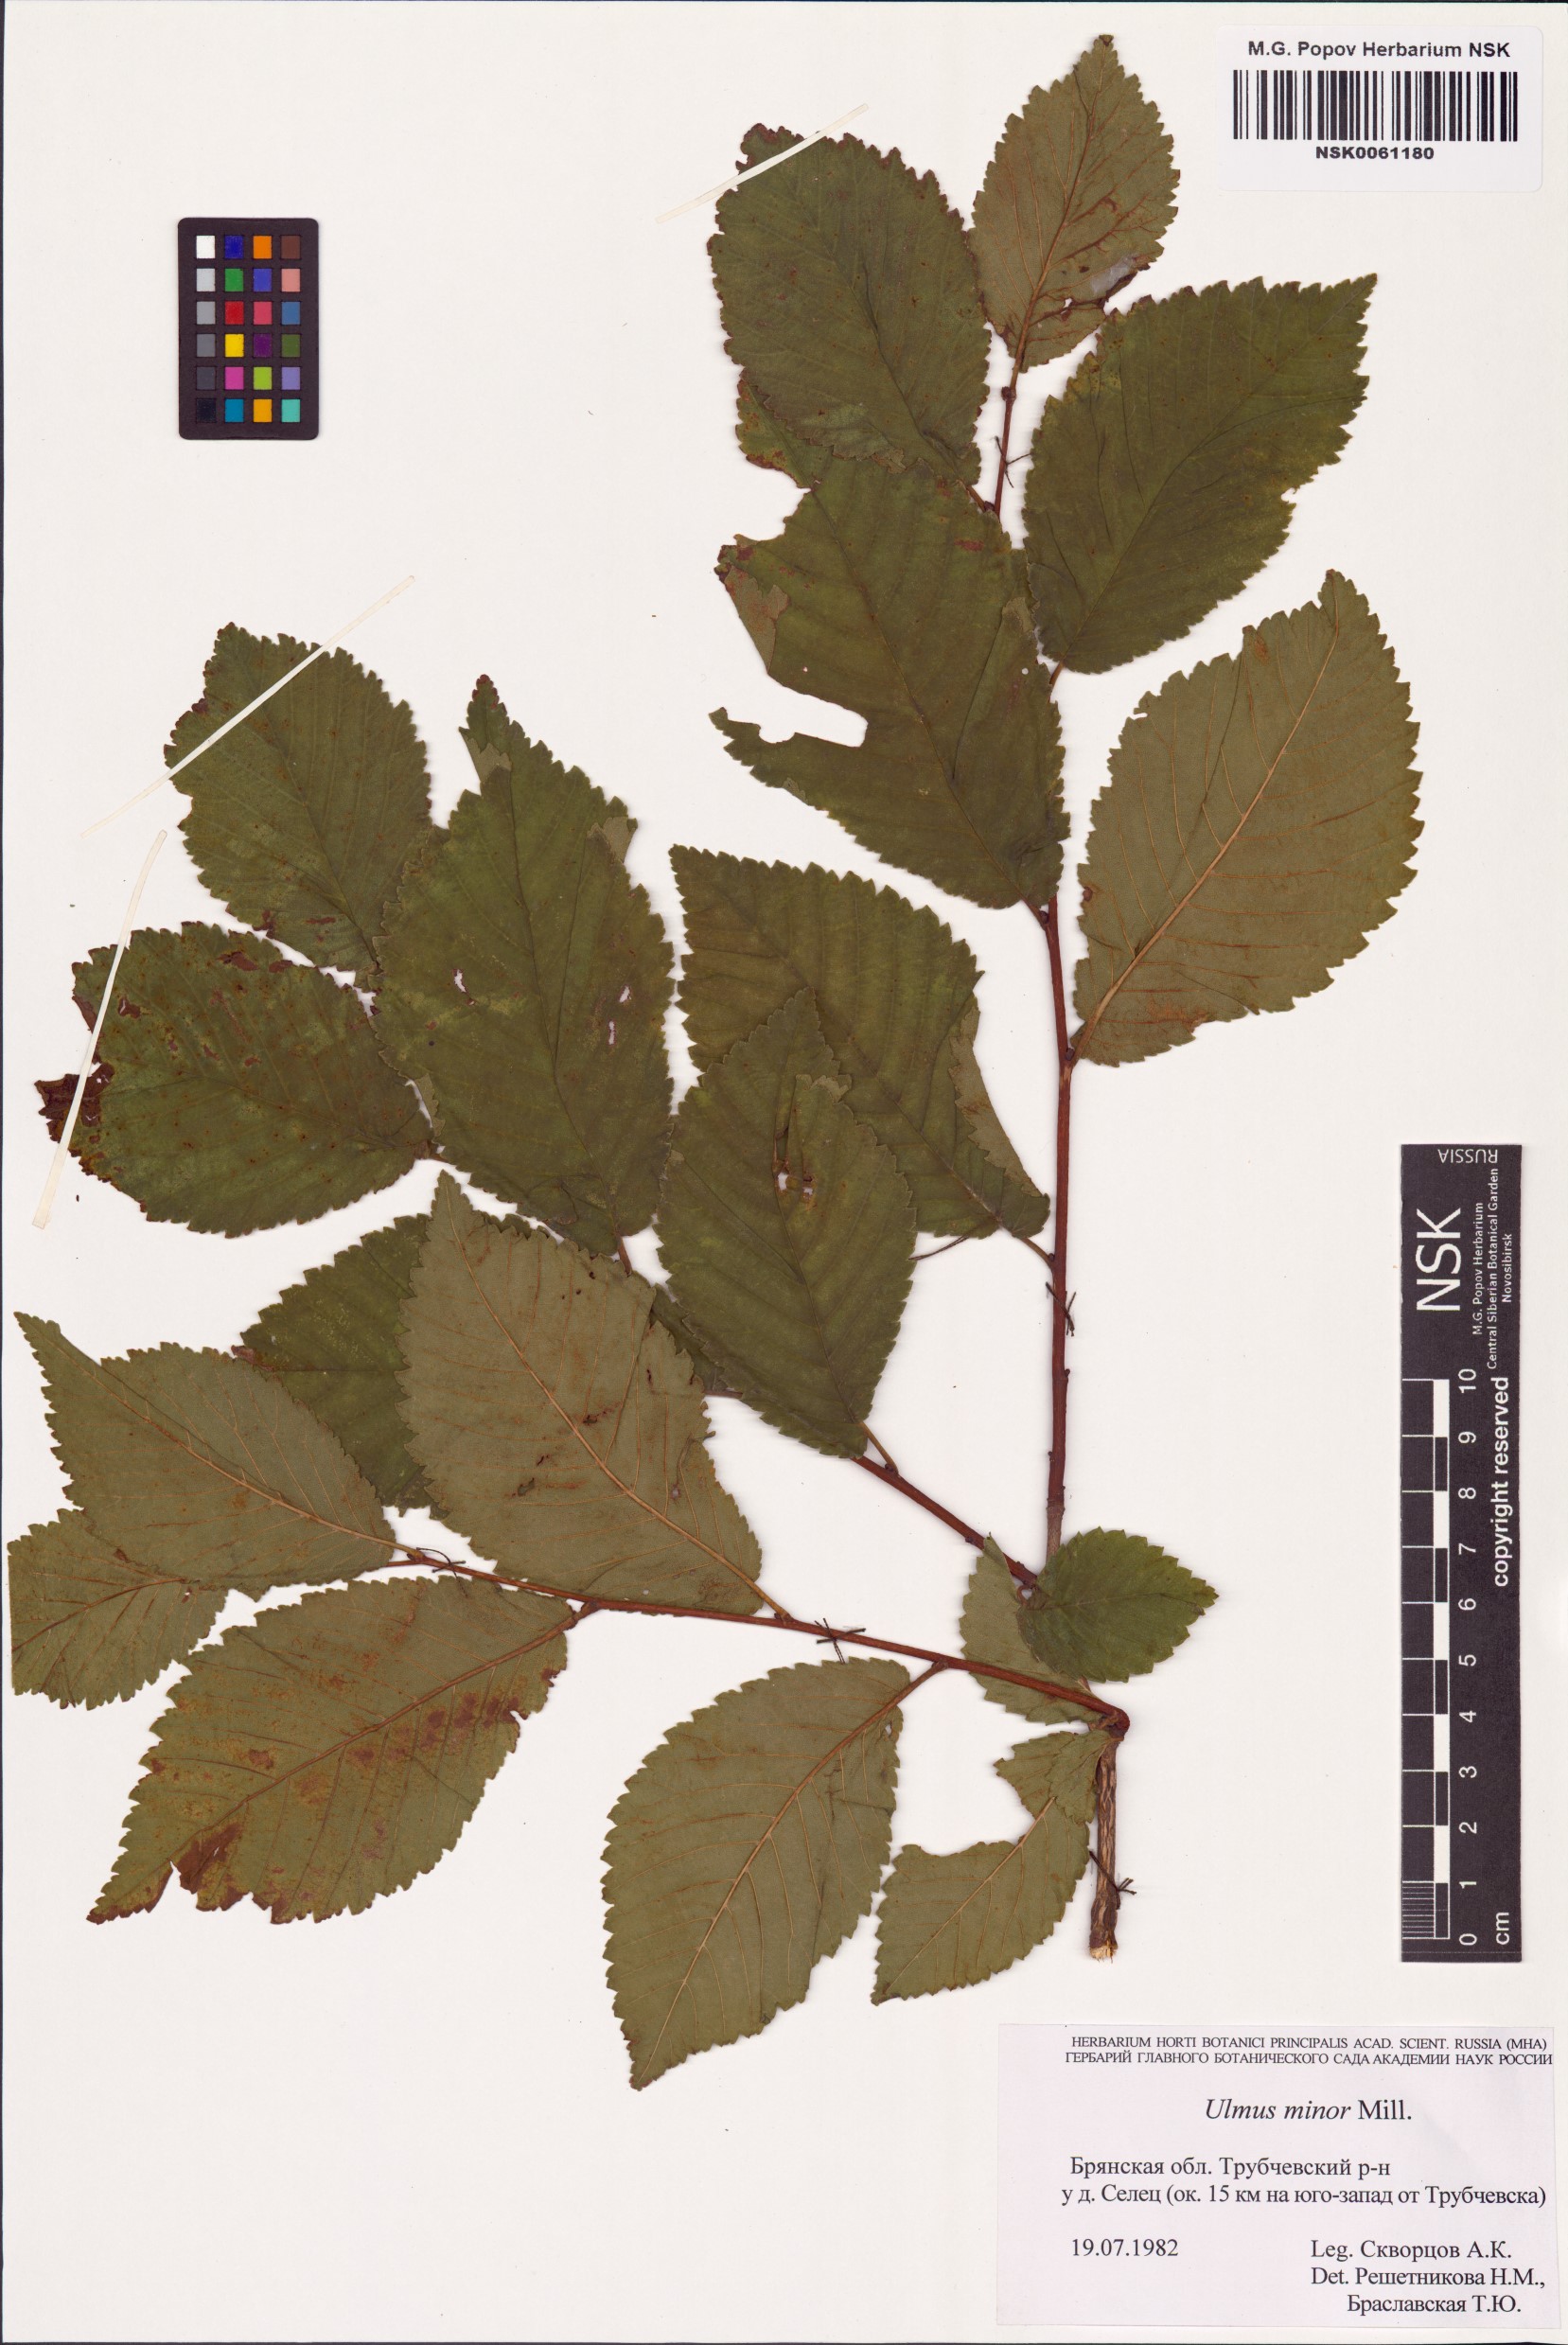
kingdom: Plantae
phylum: Tracheophyta
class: Magnoliopsida
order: Rosales
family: Ulmaceae
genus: Ulmus
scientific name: Ulmus minor
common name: Small-leaved elm
